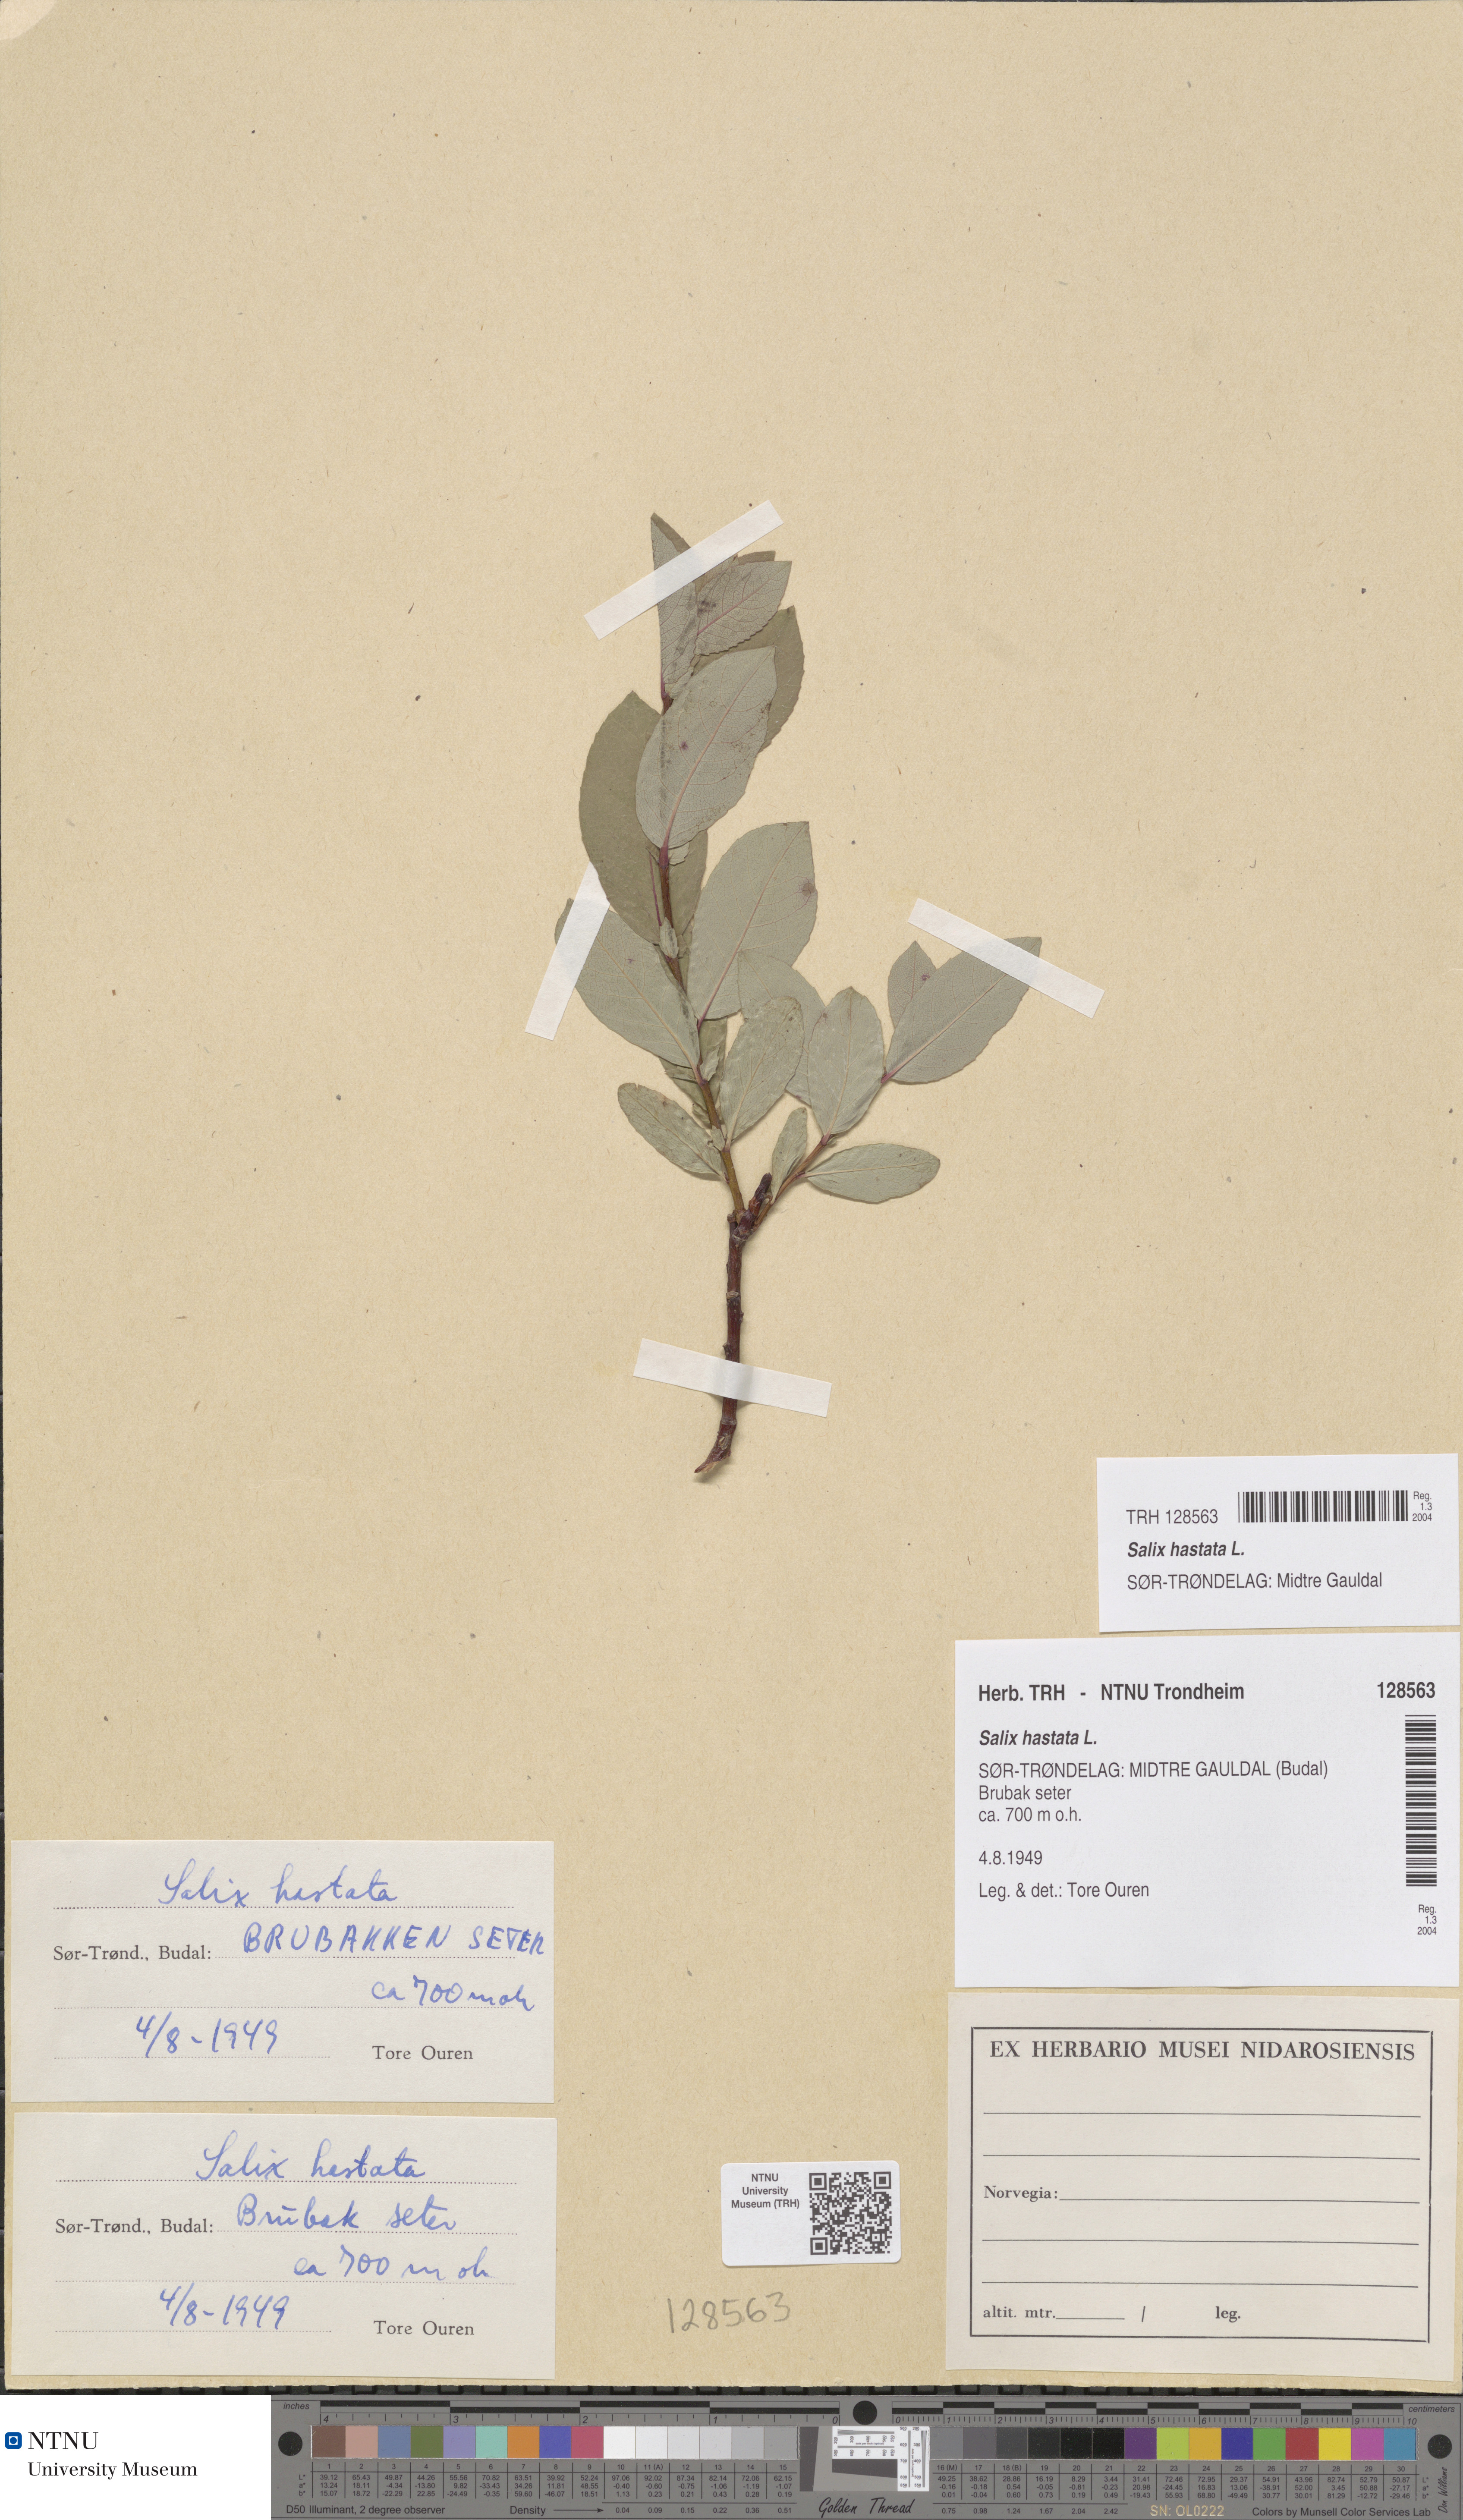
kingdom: Plantae
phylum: Tracheophyta
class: Magnoliopsida
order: Malpighiales
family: Salicaceae
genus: Salix
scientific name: Salix hastata
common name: Halberd willow
